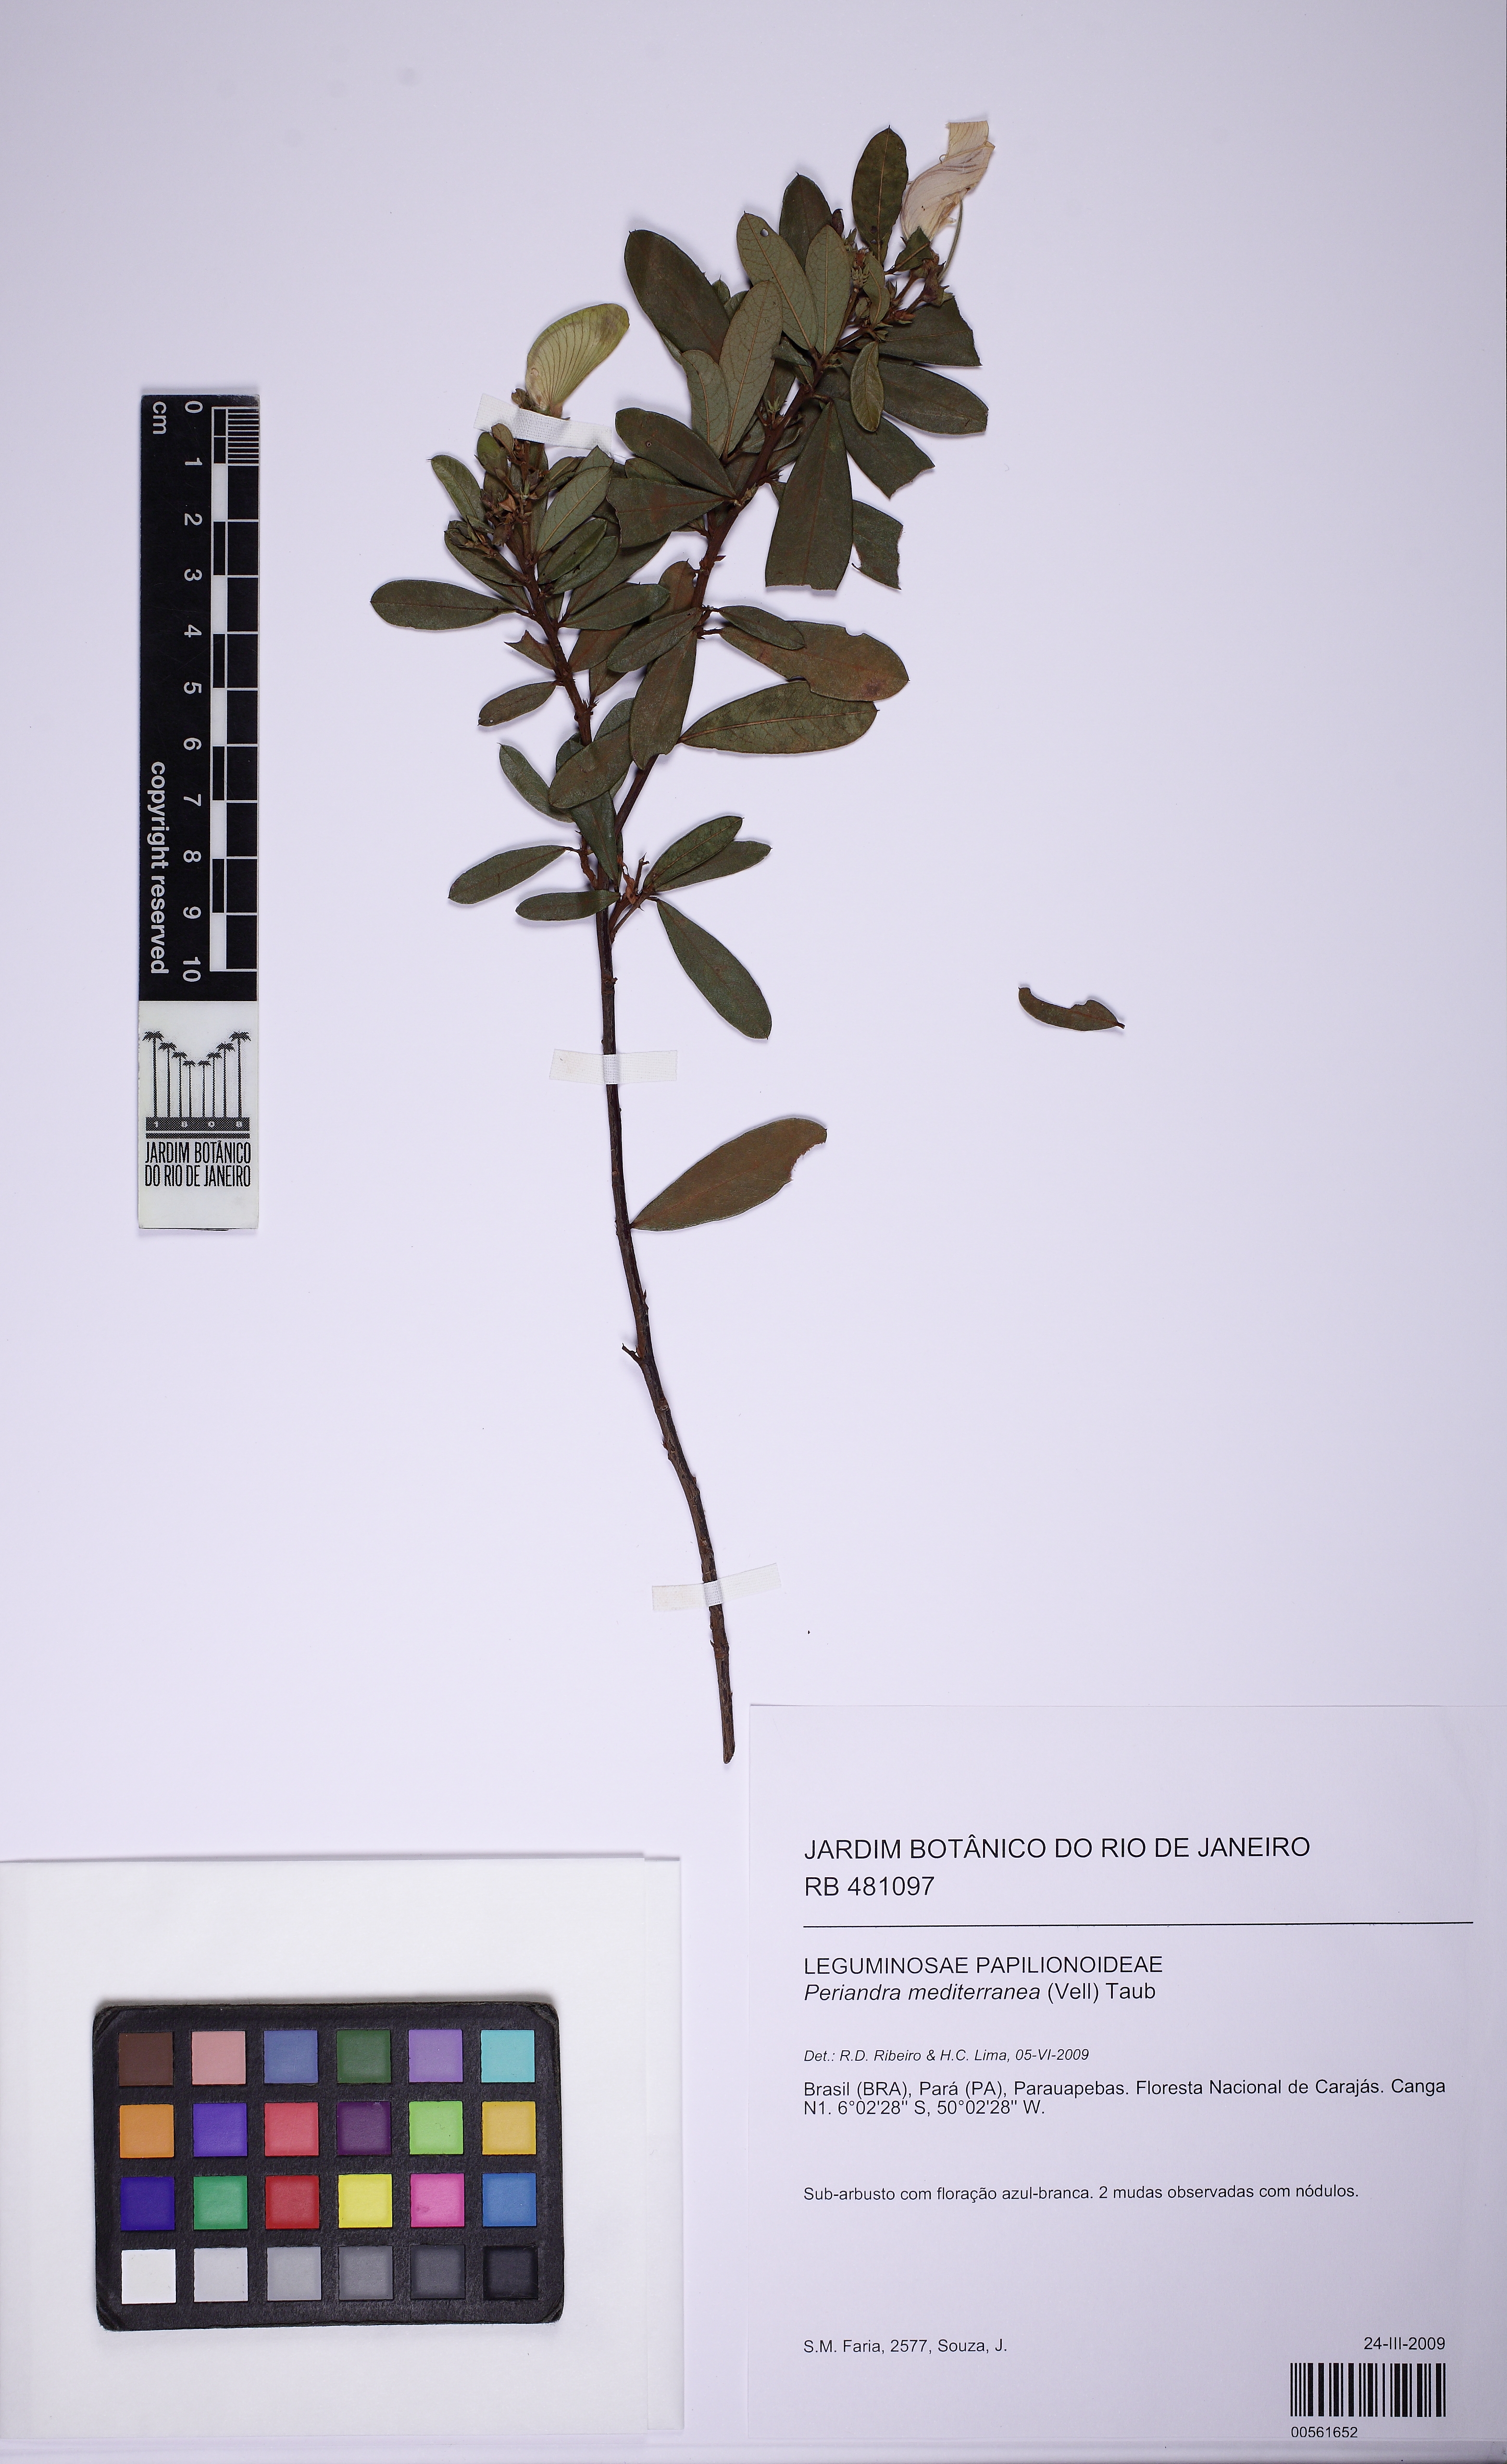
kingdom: Plantae
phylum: Tracheophyta
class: Magnoliopsida
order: Fabales
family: Fabaceae
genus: Periandra
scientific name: Periandra mediterranea
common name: Brazilian licorice
